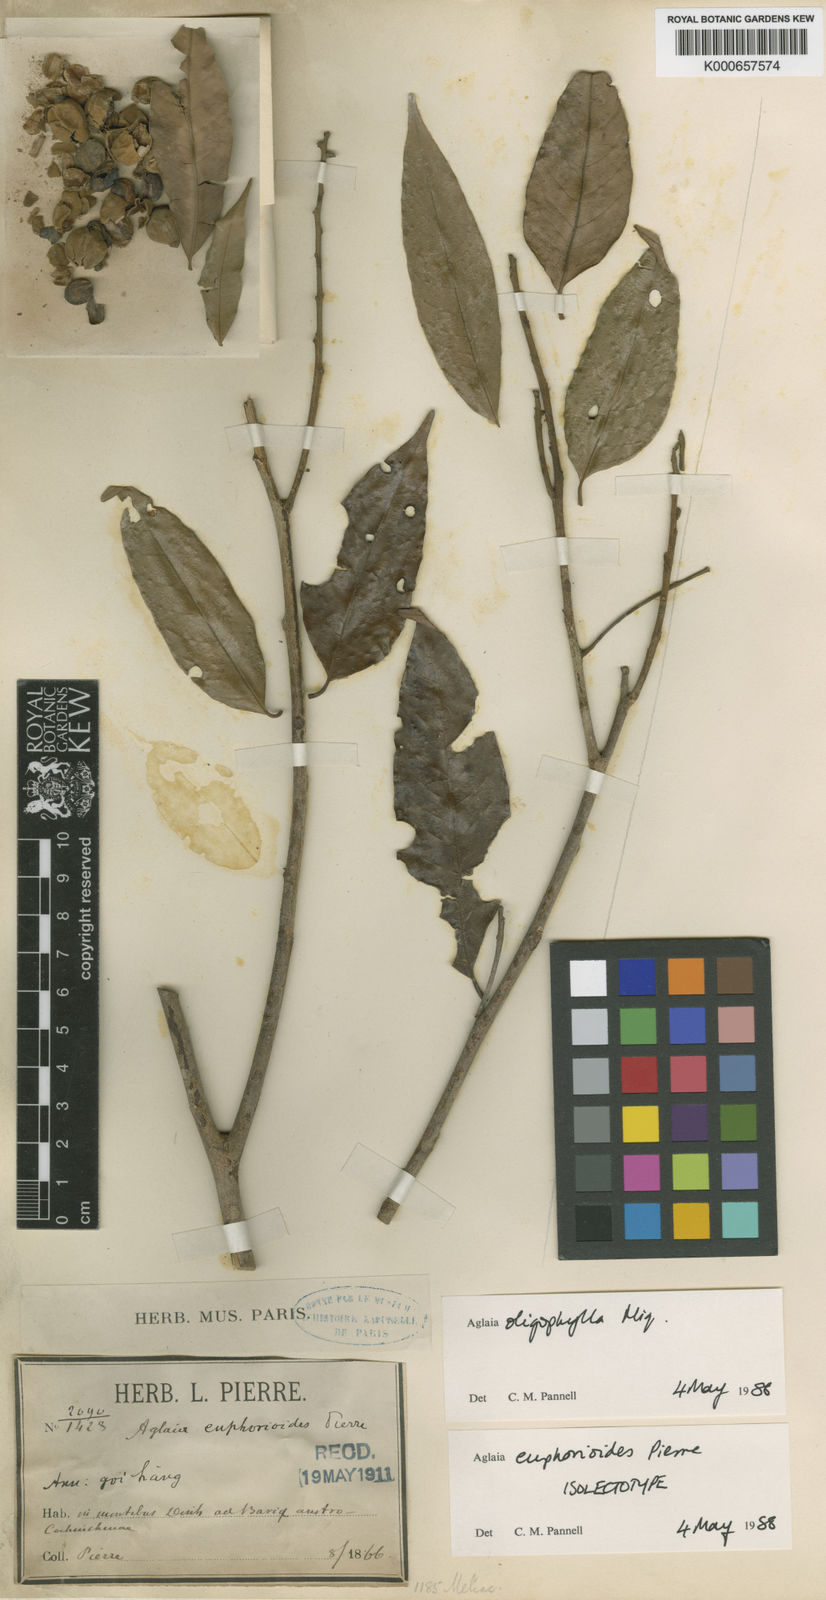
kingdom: Plantae
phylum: Tracheophyta
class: Magnoliopsida
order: Sapindales
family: Meliaceae
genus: Aglaia
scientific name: Aglaia oligophylla
